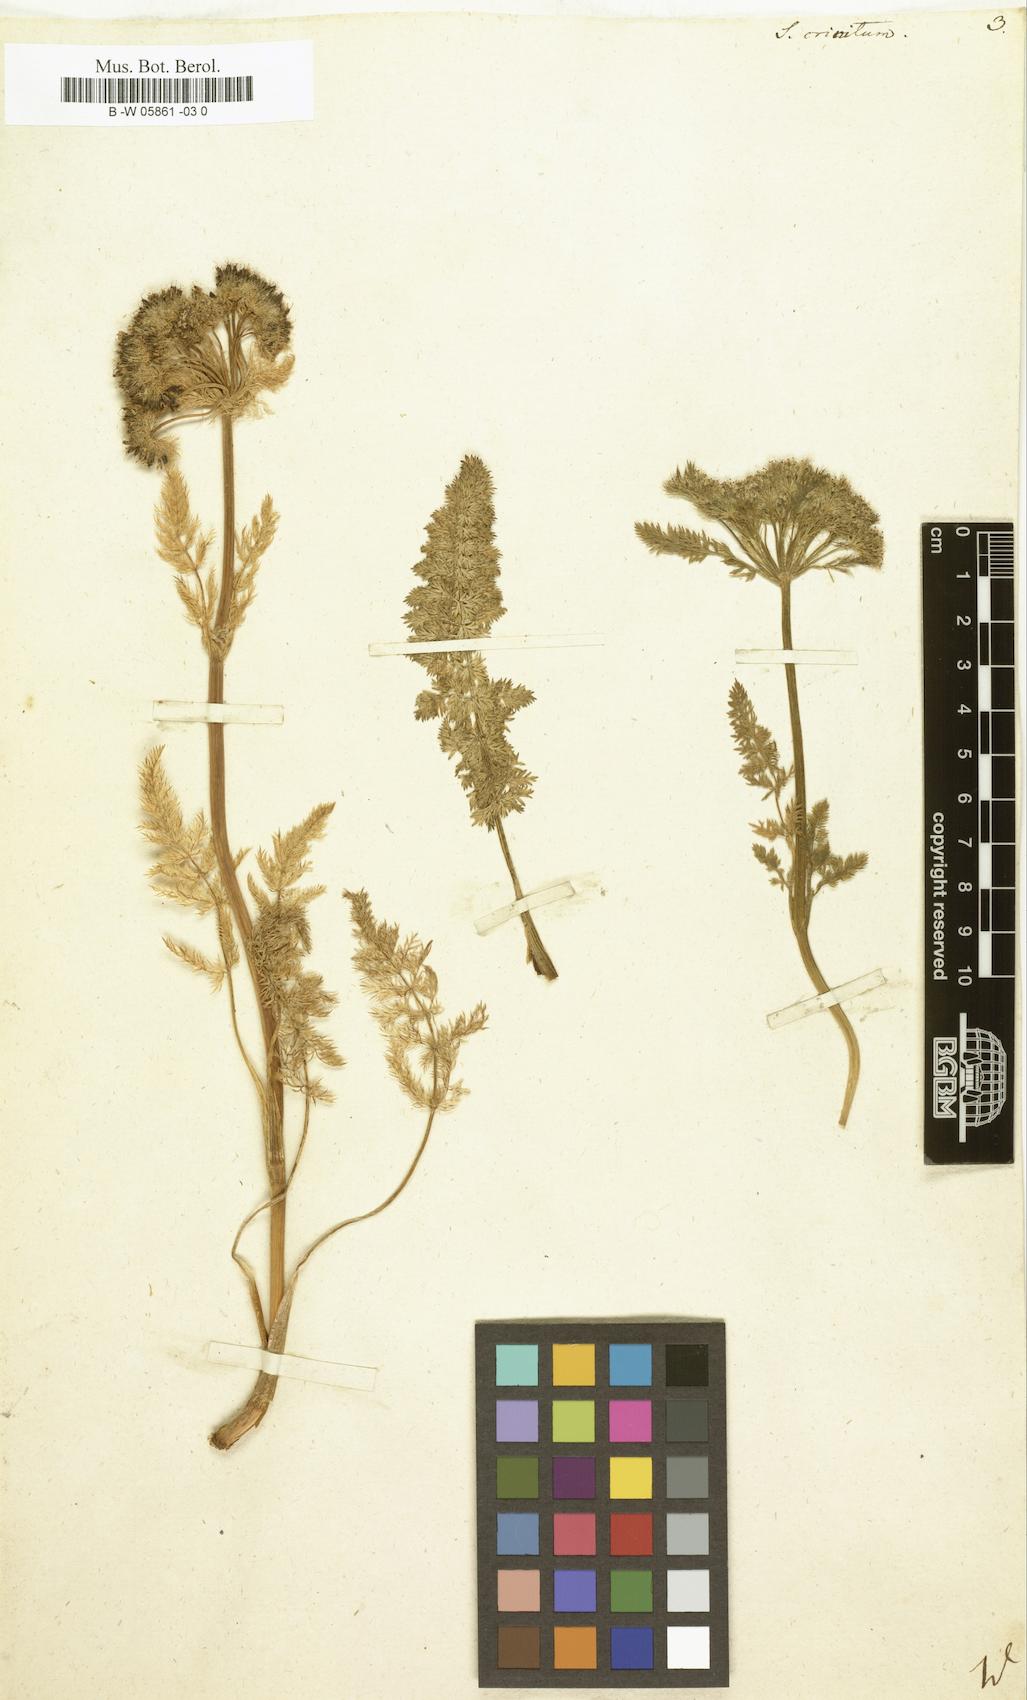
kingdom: Plantae
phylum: Tracheophyta
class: Magnoliopsida
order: Apiales
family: Apiaceae
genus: Schulzia
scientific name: Schulzia crinita
